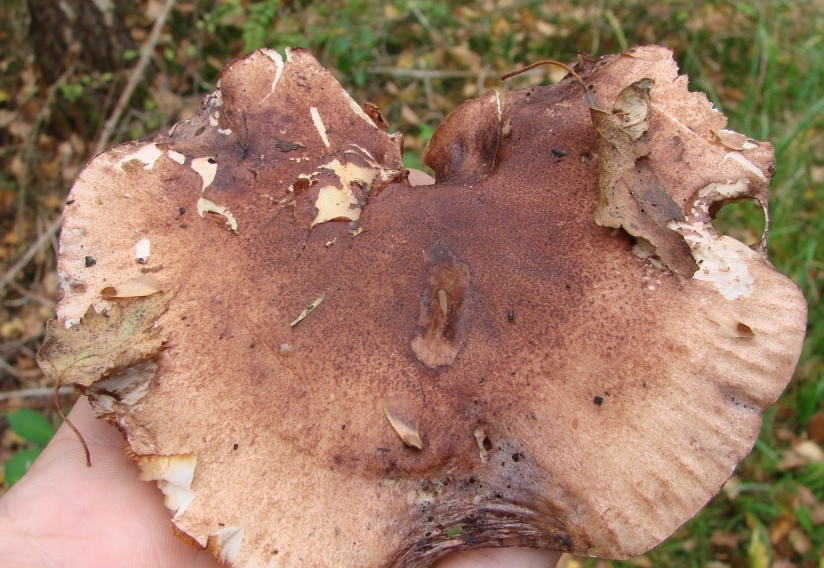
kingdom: Fungi
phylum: Basidiomycota
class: Agaricomycetes
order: Agaricales
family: Tricholomataceae
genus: Tricholoma
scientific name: Tricholoma fulvum
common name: birke-ridderhat
